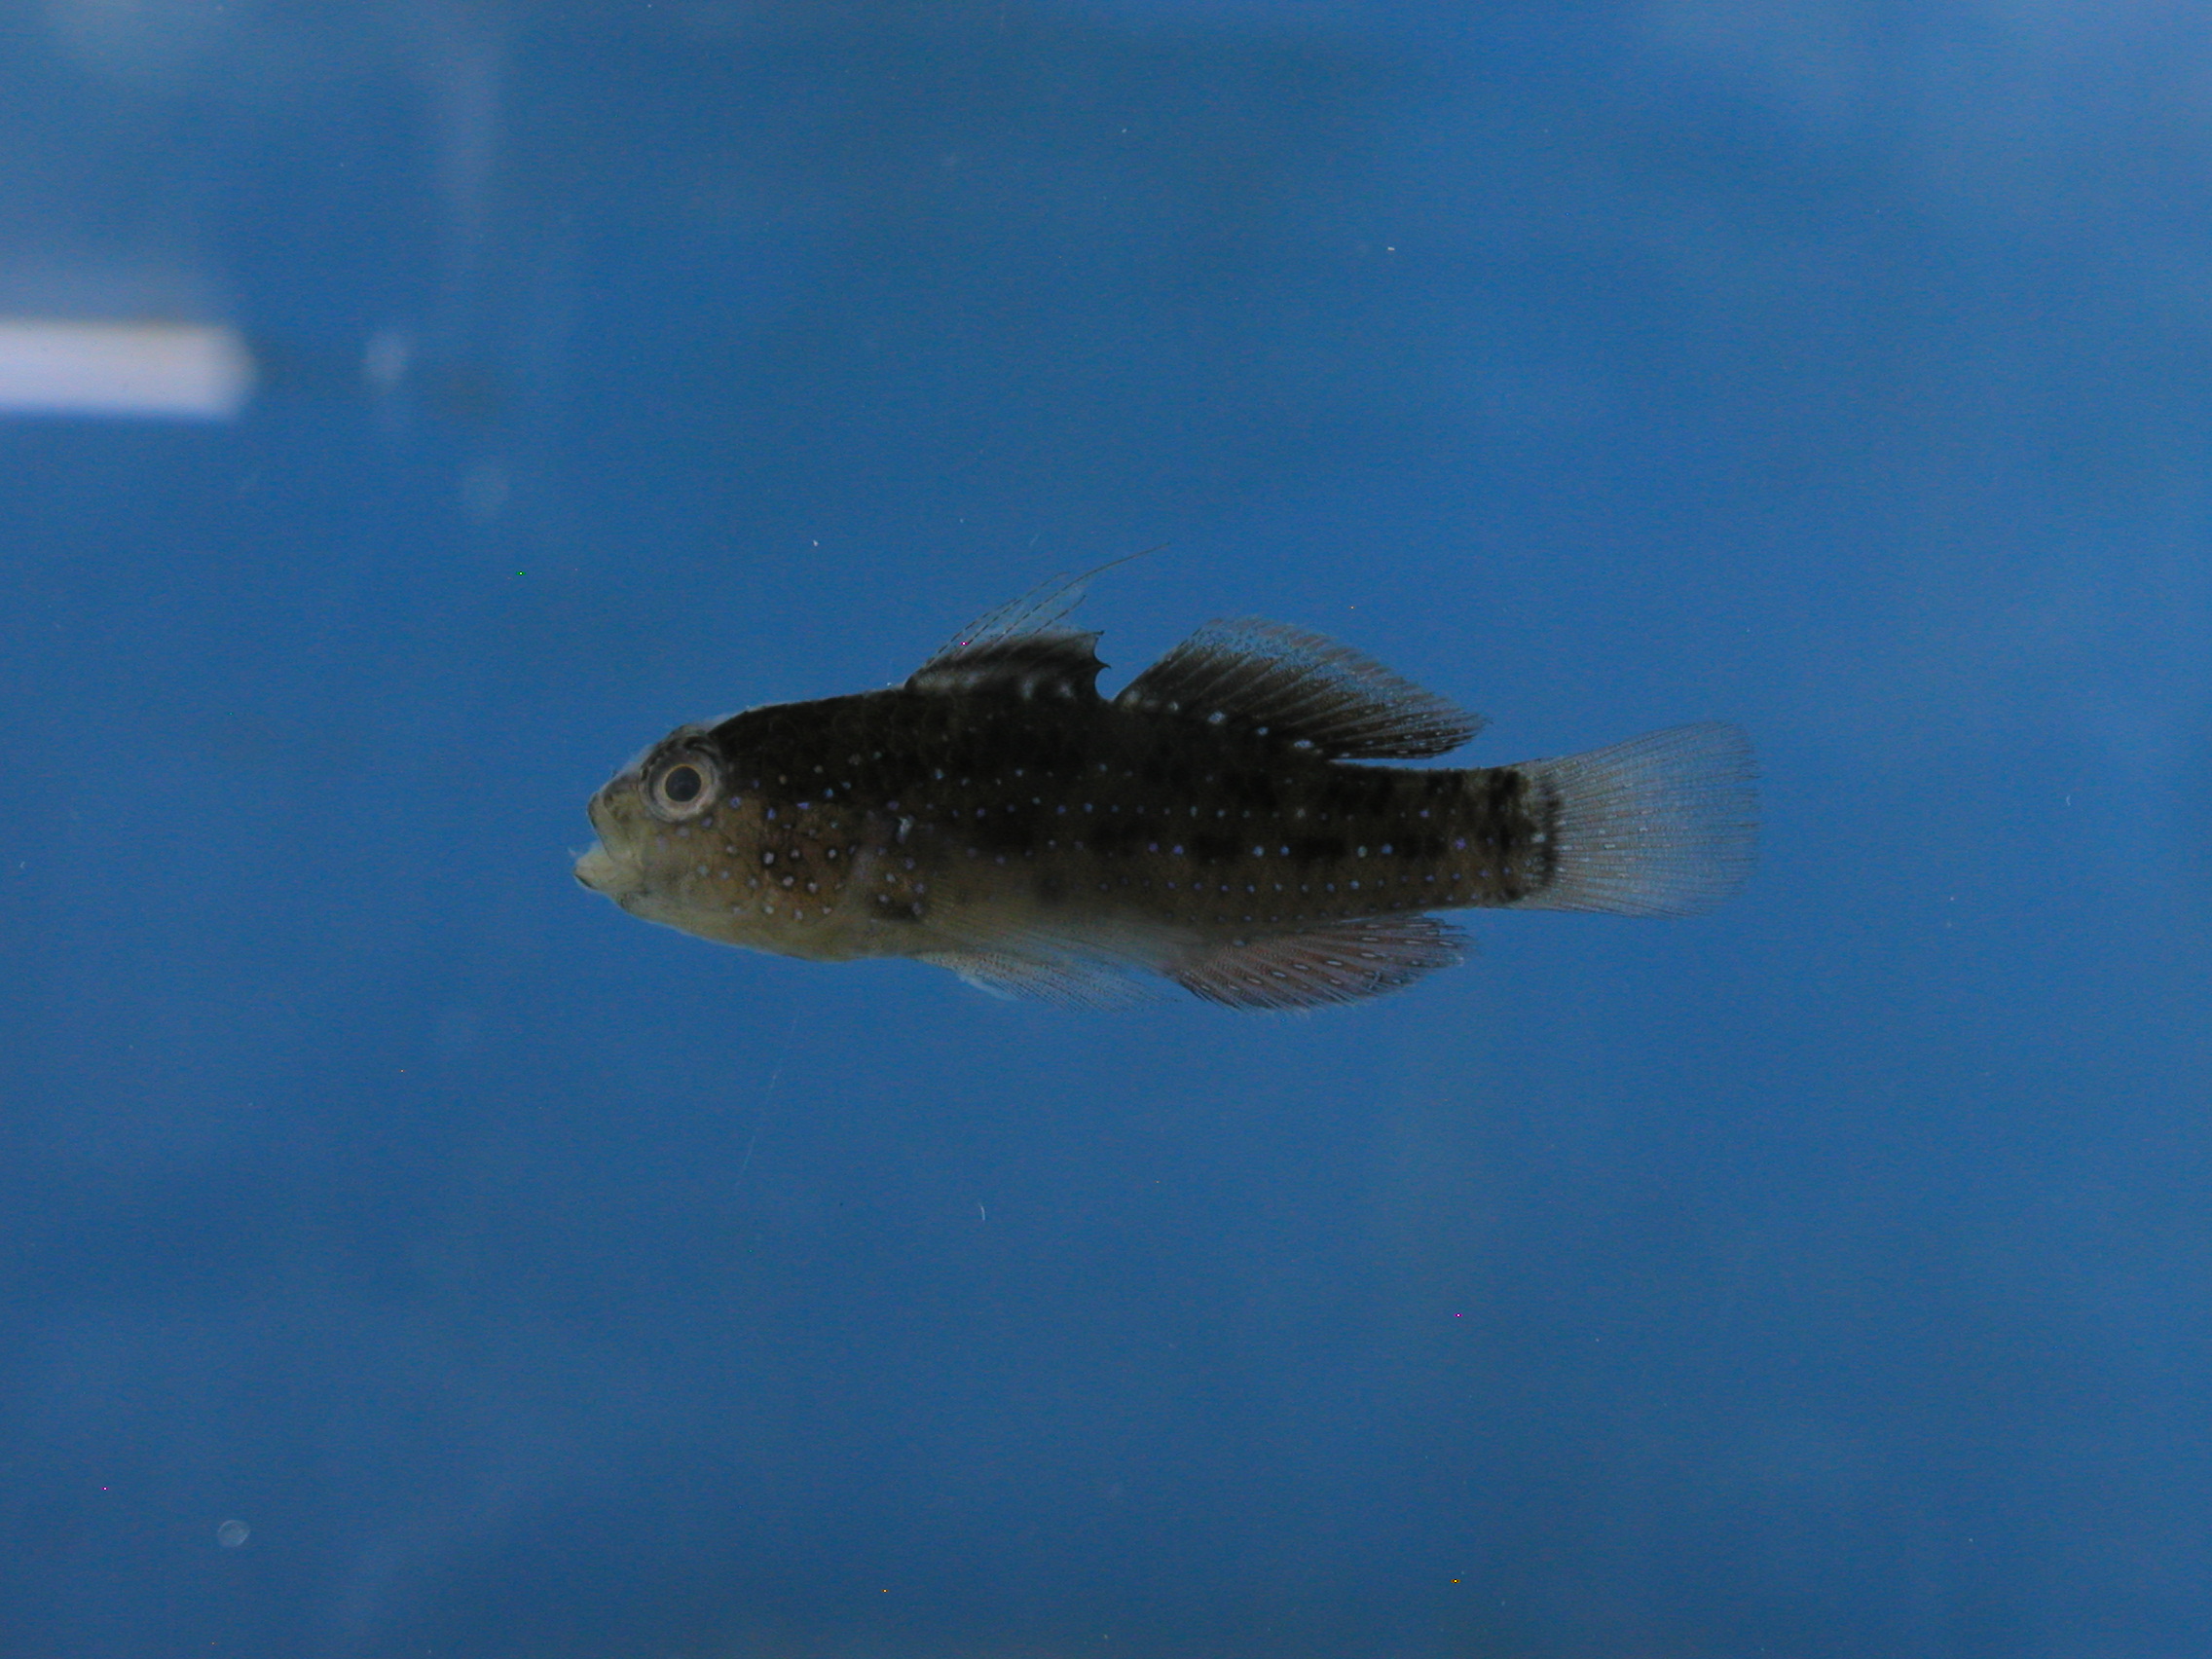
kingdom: Animalia
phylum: Chordata
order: Perciformes
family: Gobiidae
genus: Asterropteryx
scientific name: Asterropteryx semipunctata
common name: Starry goby
